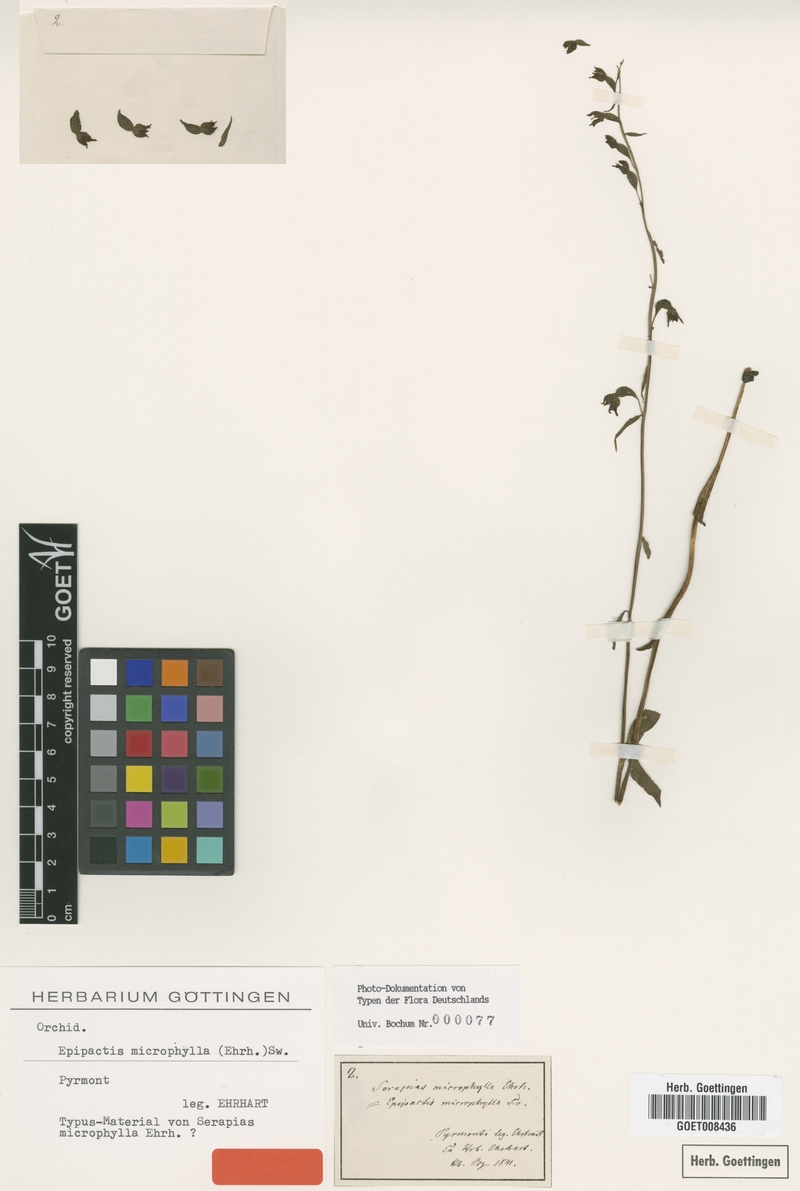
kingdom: Plantae
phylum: Tracheophyta
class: Liliopsida
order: Asparagales
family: Orchidaceae
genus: Epipactis
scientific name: Epipactis microphylla
